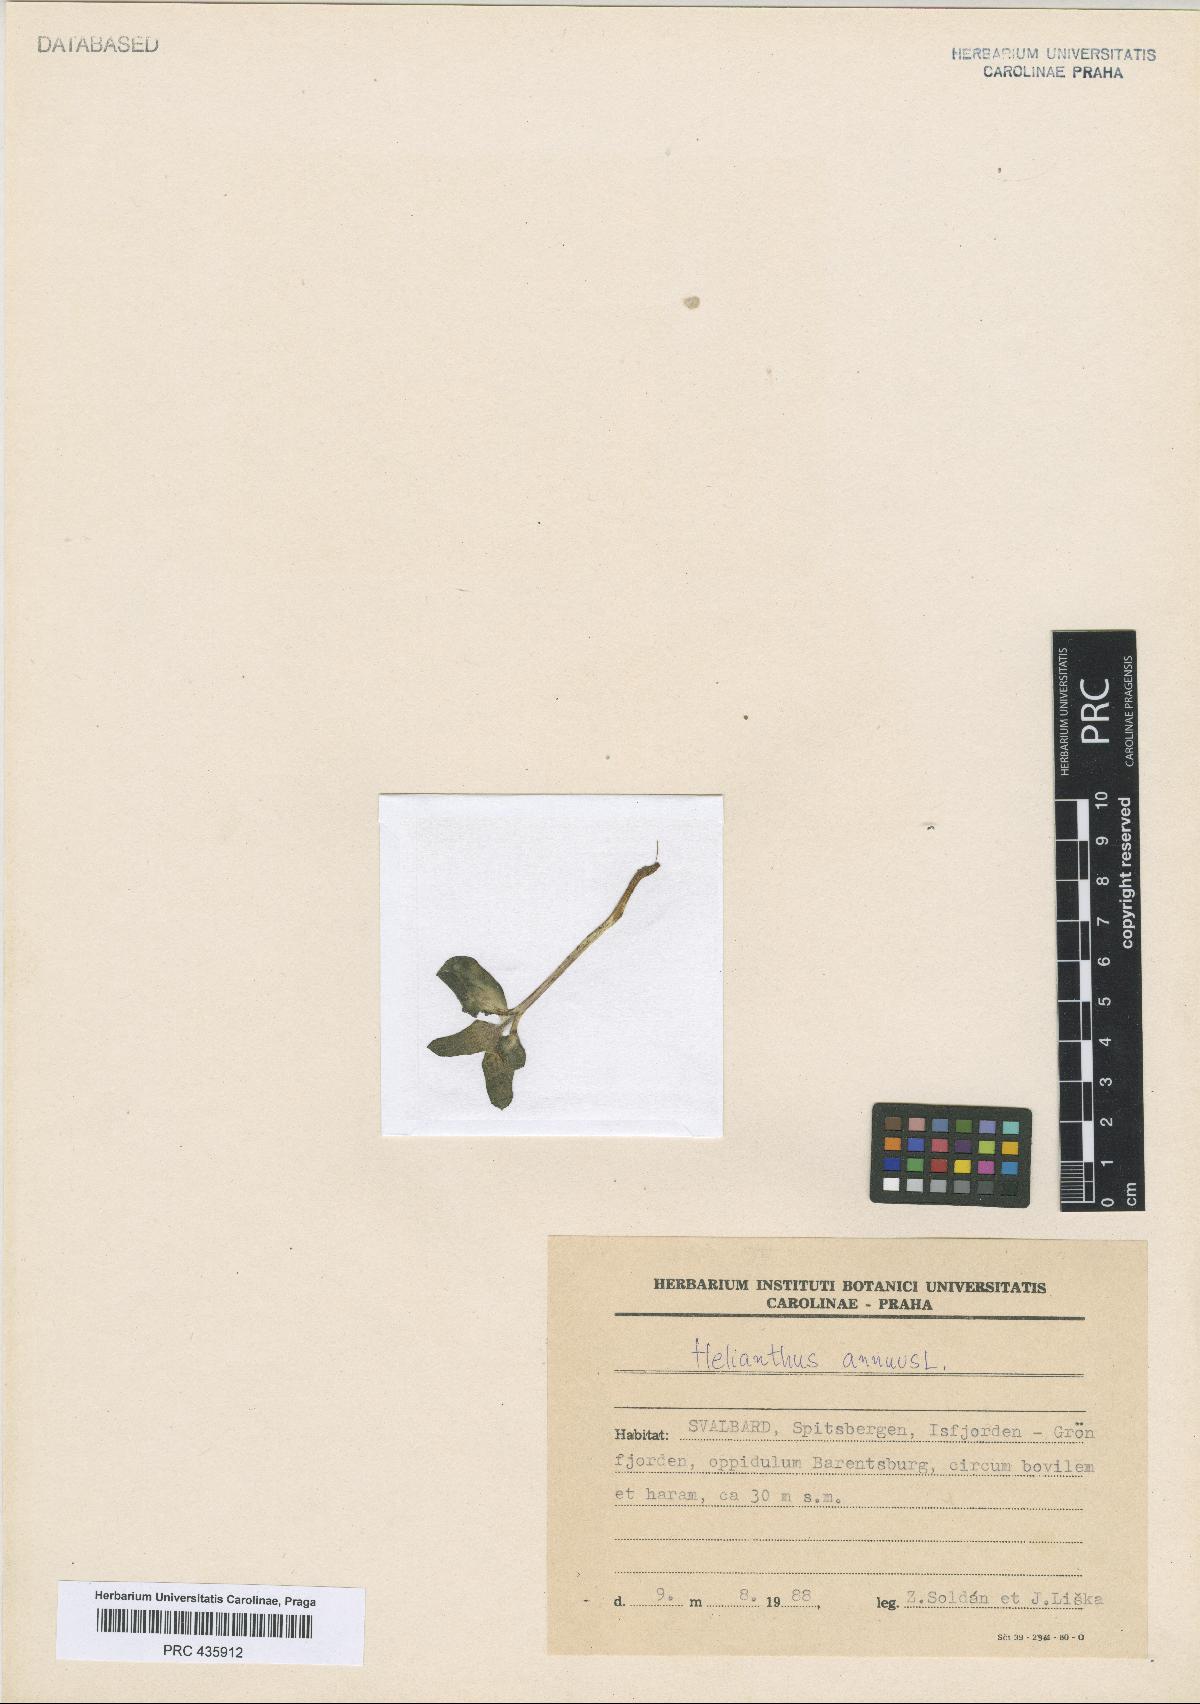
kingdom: Plantae
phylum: Tracheophyta
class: Magnoliopsida
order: Asterales
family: Asteraceae
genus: Helianthus
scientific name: Helianthus annuus
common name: Sunflower
